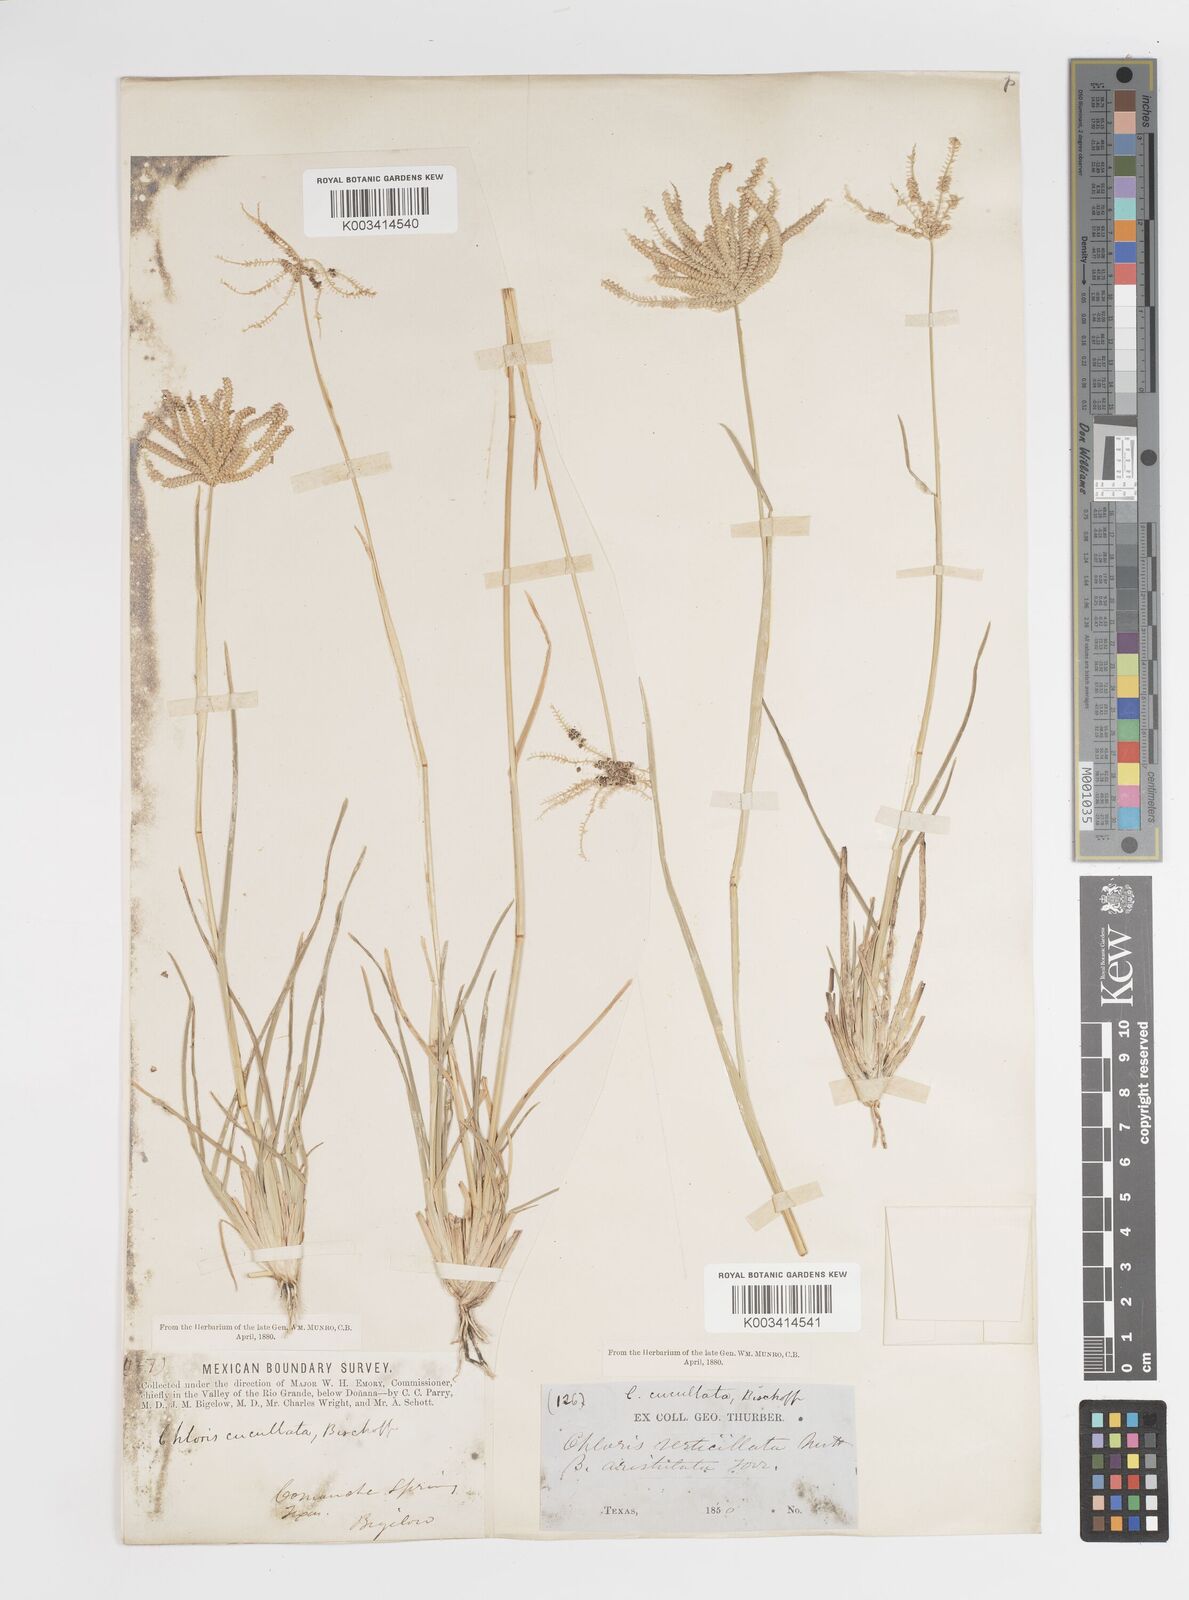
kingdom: Plantae
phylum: Tracheophyta
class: Liliopsida
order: Poales
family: Poaceae
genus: Chloris
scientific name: Chloris cucullata
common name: Hooded windmill grass
